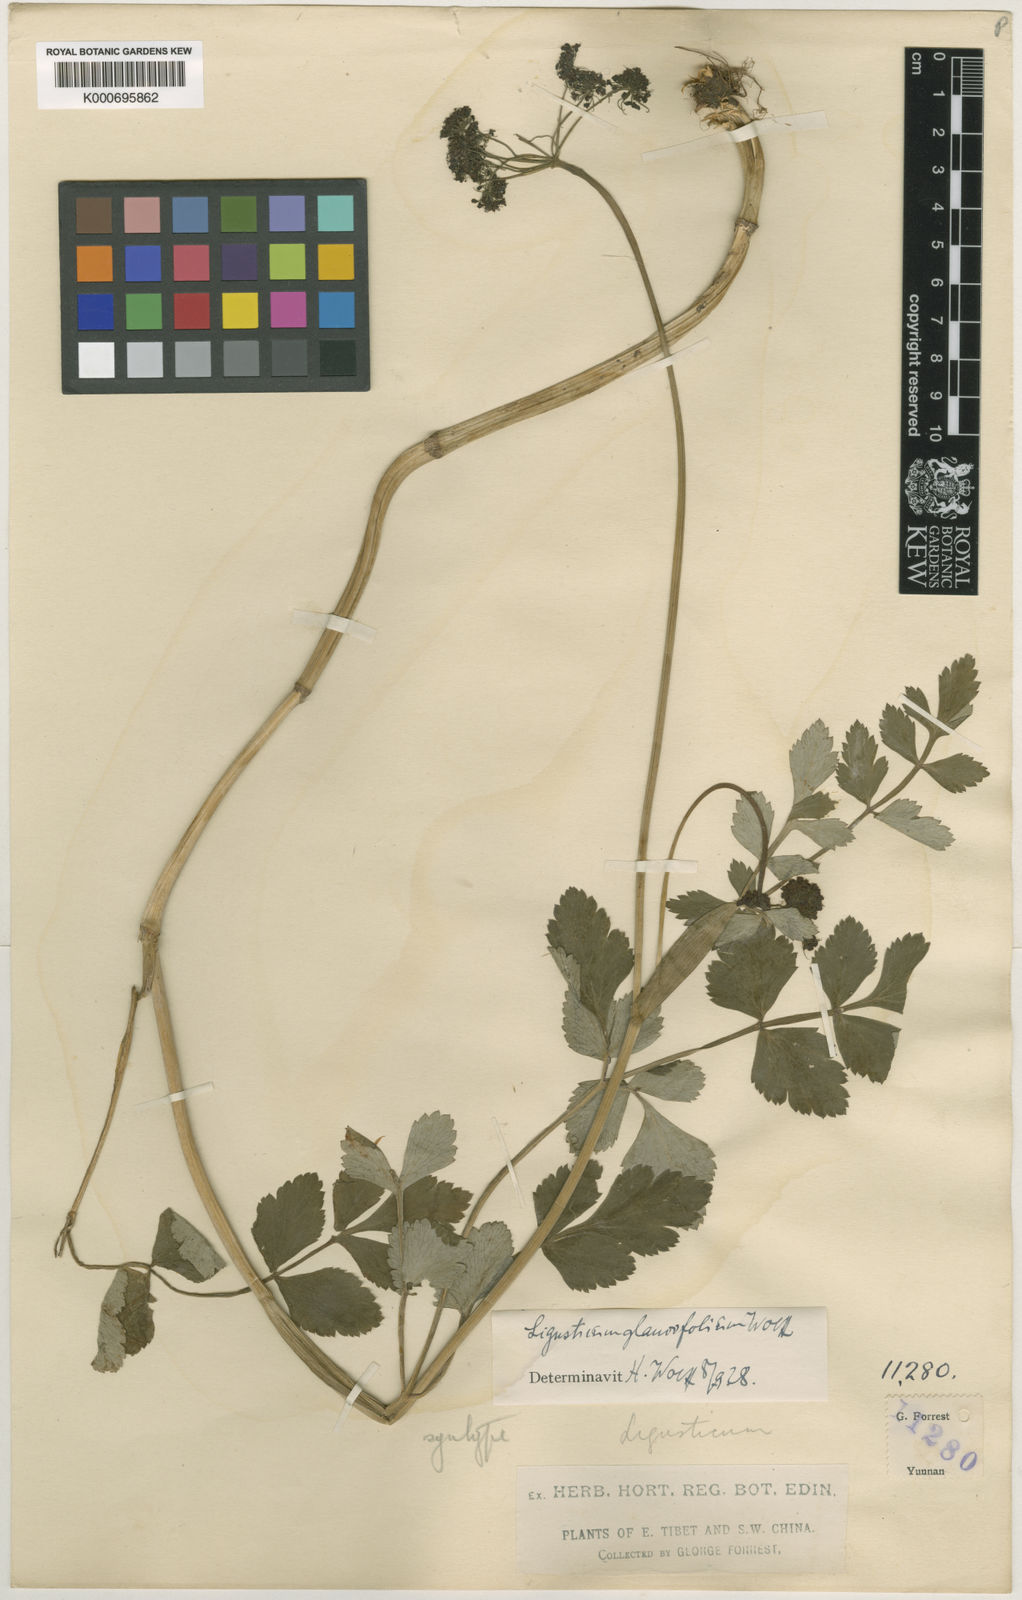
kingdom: Plantae
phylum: Tracheophyta
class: Magnoliopsida
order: Apiales
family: Apiaceae
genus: Conioselinum
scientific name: Conioselinum pseudoangelica
